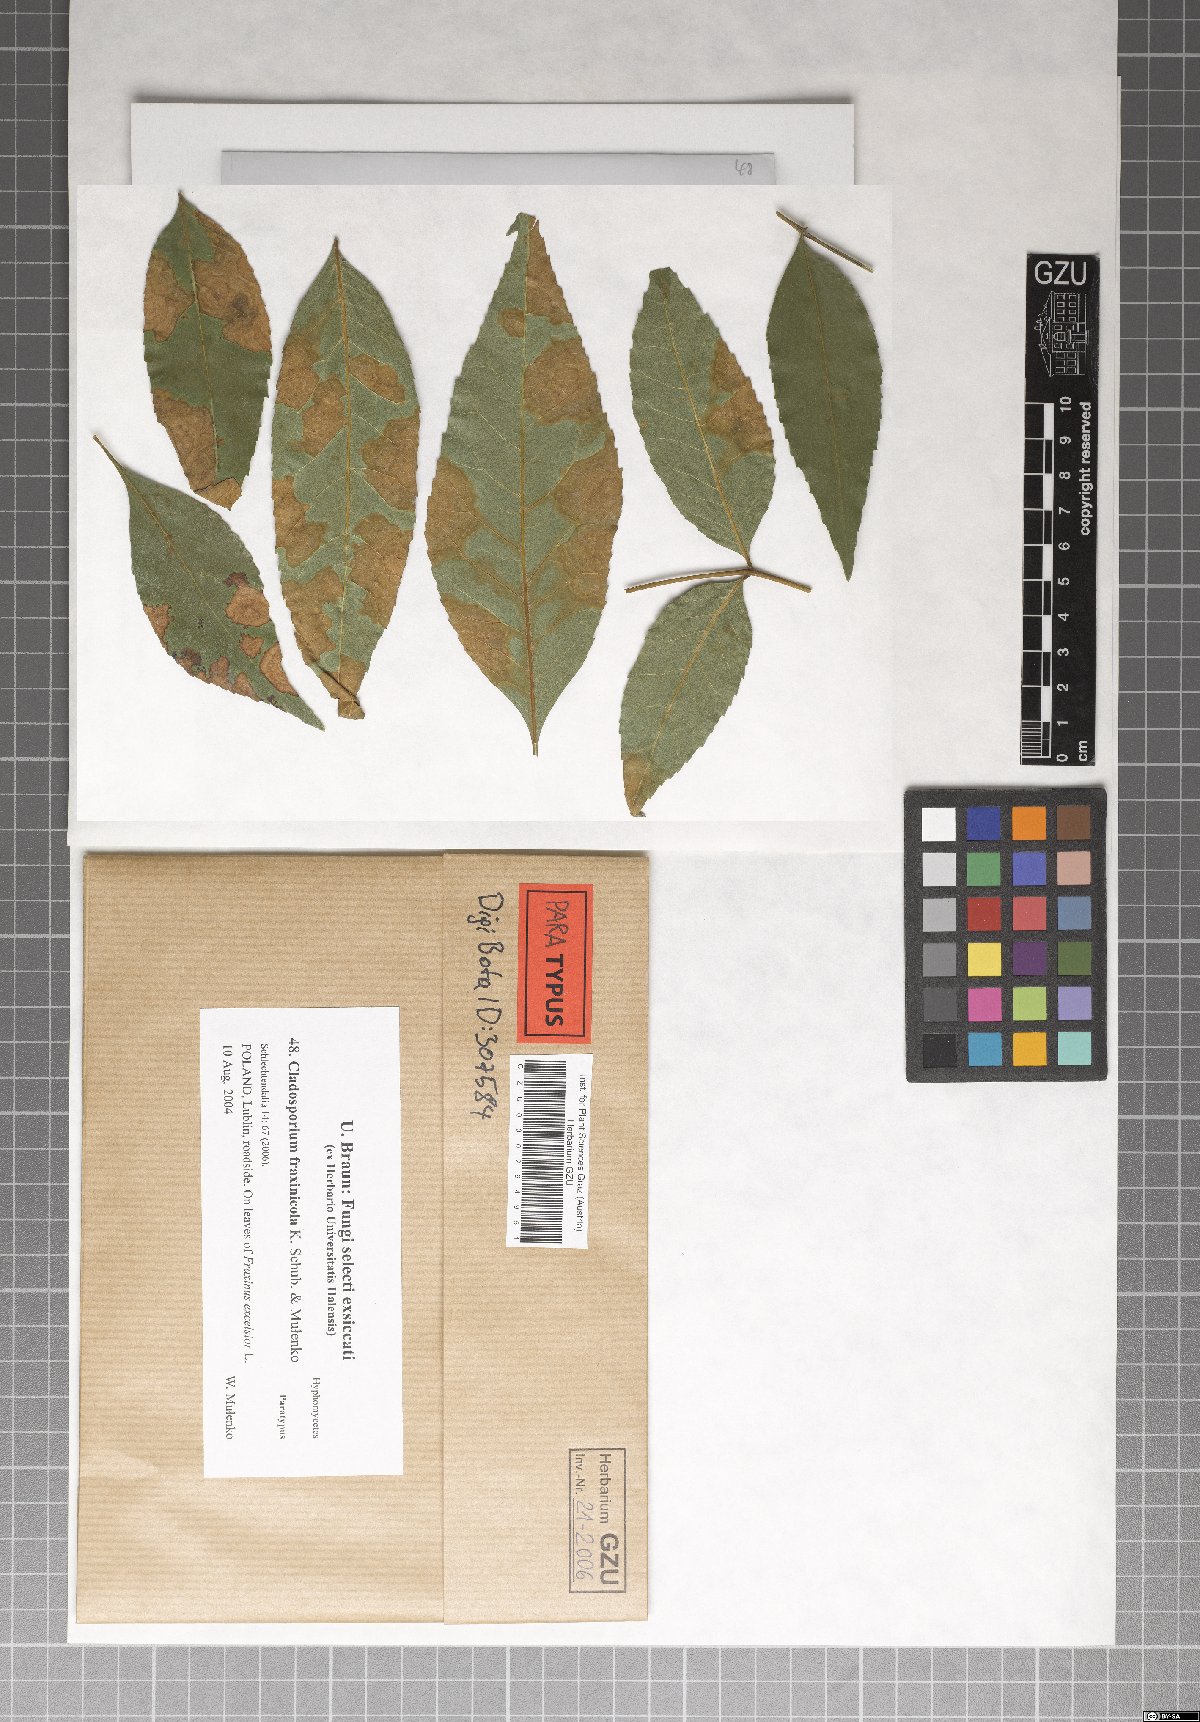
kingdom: Fungi
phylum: Ascomycota
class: Dothideomycetes
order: Capnodiales
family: Cladosporiaceae
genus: Cladosporium
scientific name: Cladosporium fraxinicola
